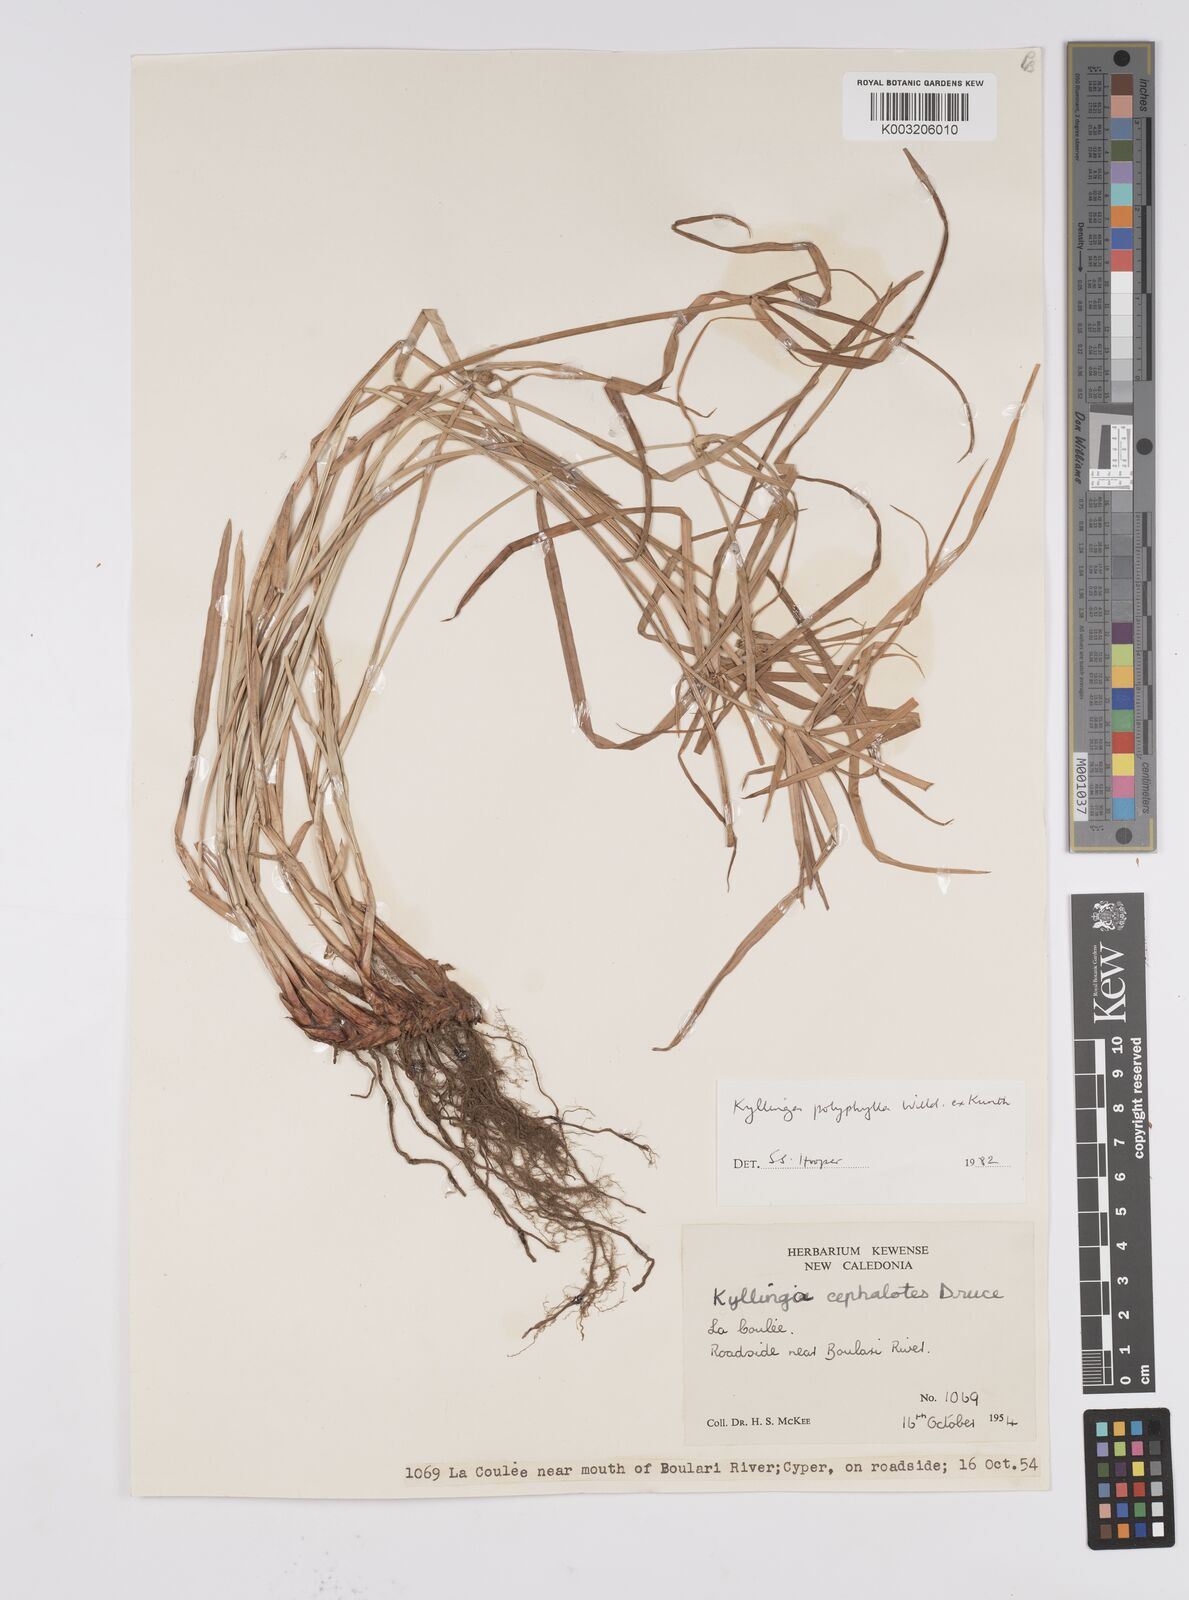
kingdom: Plantae
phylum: Tracheophyta
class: Liliopsida
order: Poales
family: Cyperaceae
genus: Cyperus
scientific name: Cyperus
